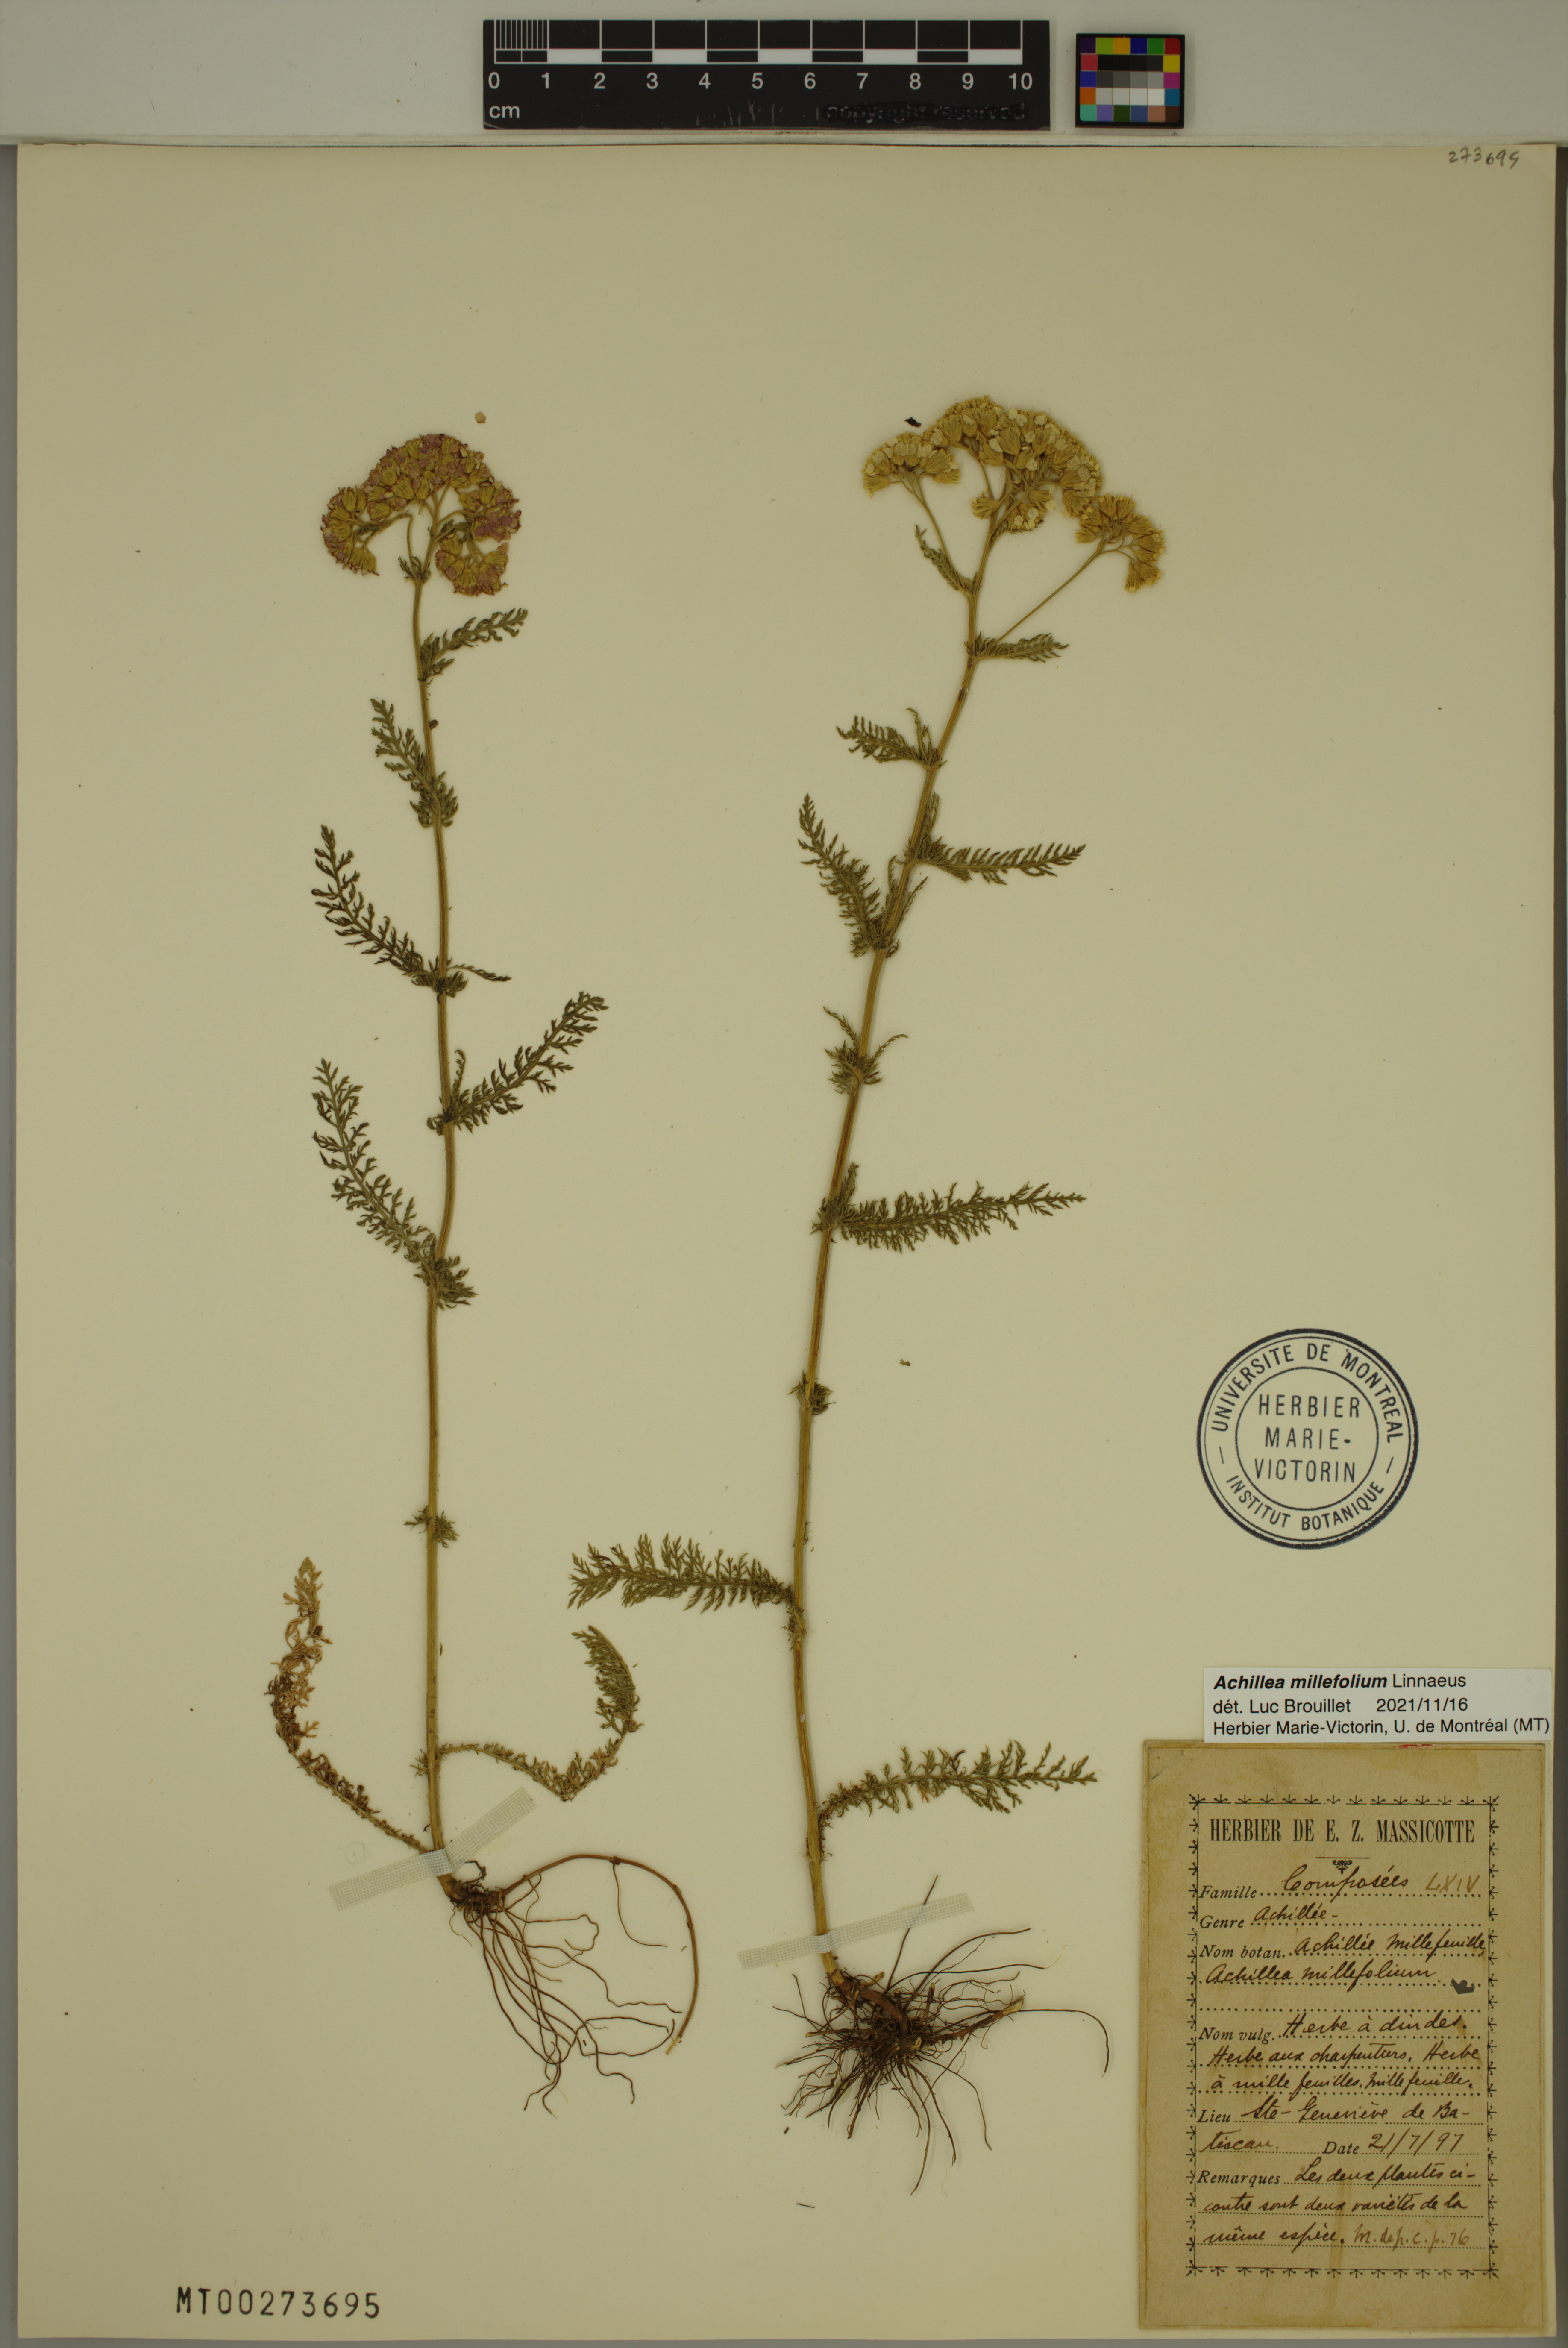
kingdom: Plantae
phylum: Tracheophyta
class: Magnoliopsida
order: Asterales
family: Asteraceae
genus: Achillea
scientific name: Achillea millefolium
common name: Yarrow
